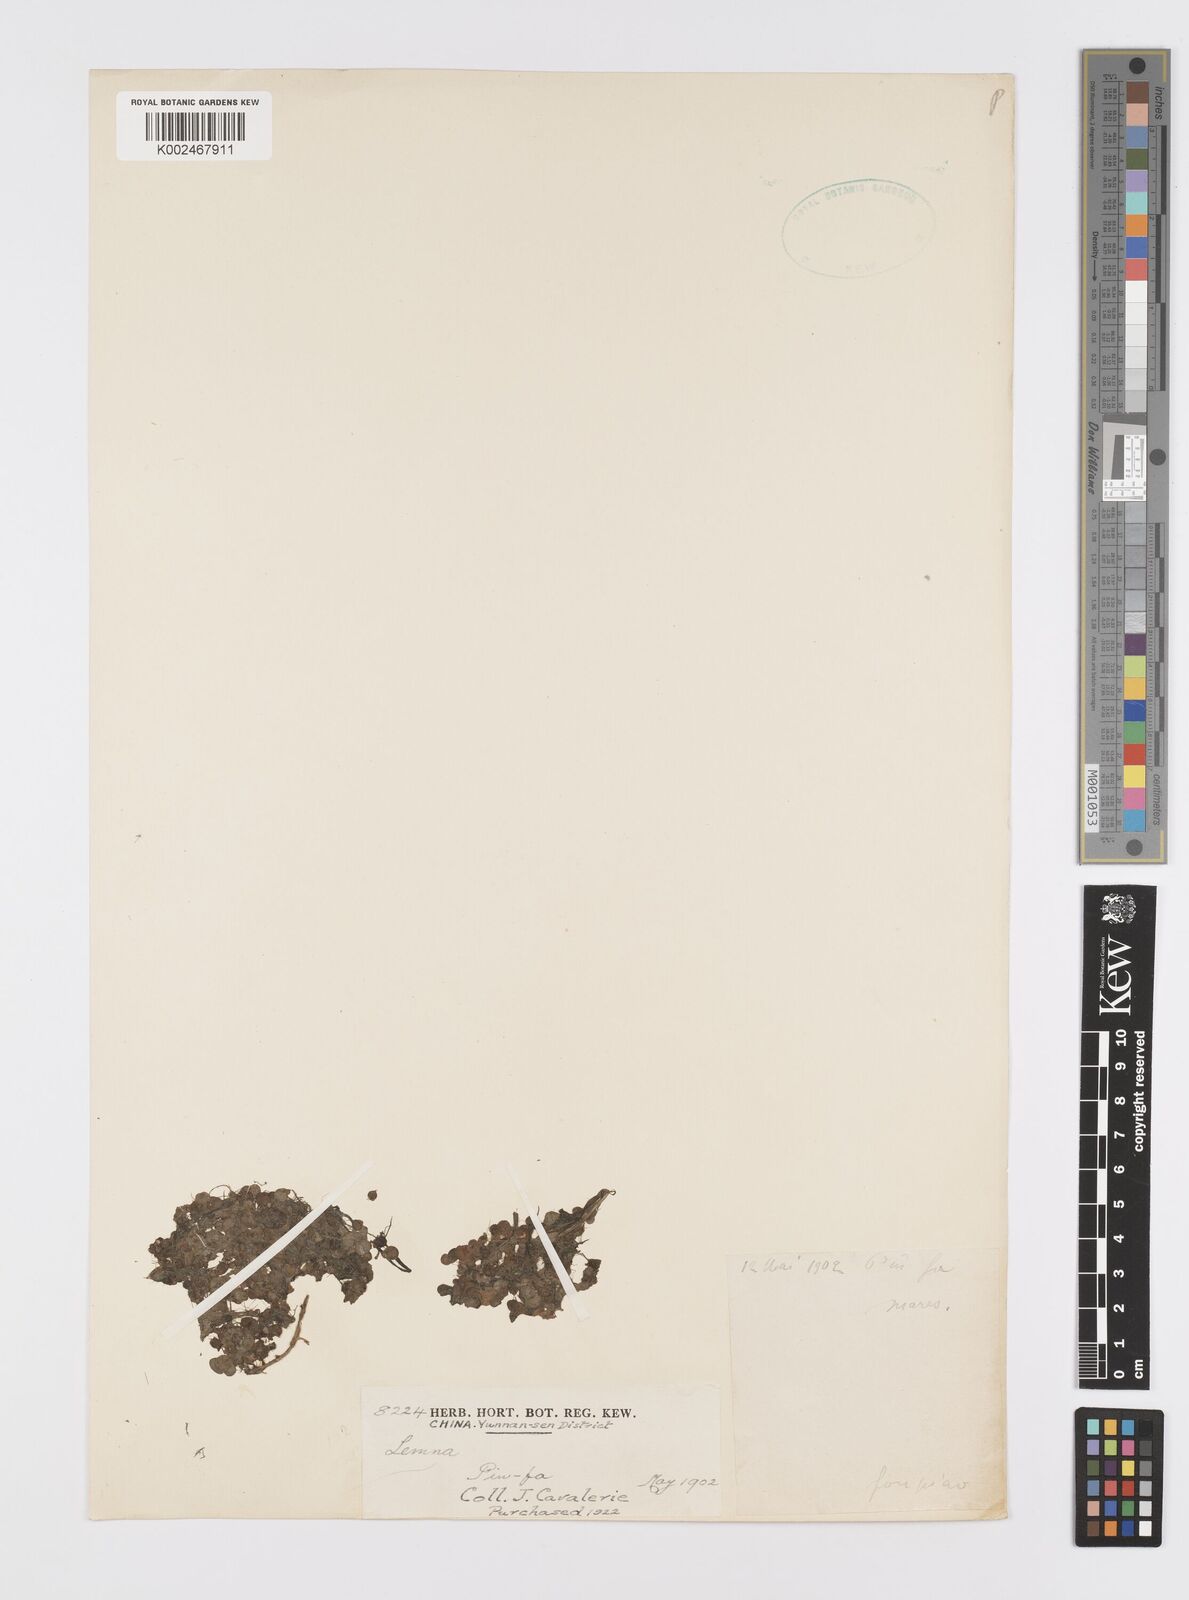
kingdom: Plantae
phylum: Tracheophyta
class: Liliopsida
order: Alismatales
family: Araceae
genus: Lemna
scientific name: Lemna
